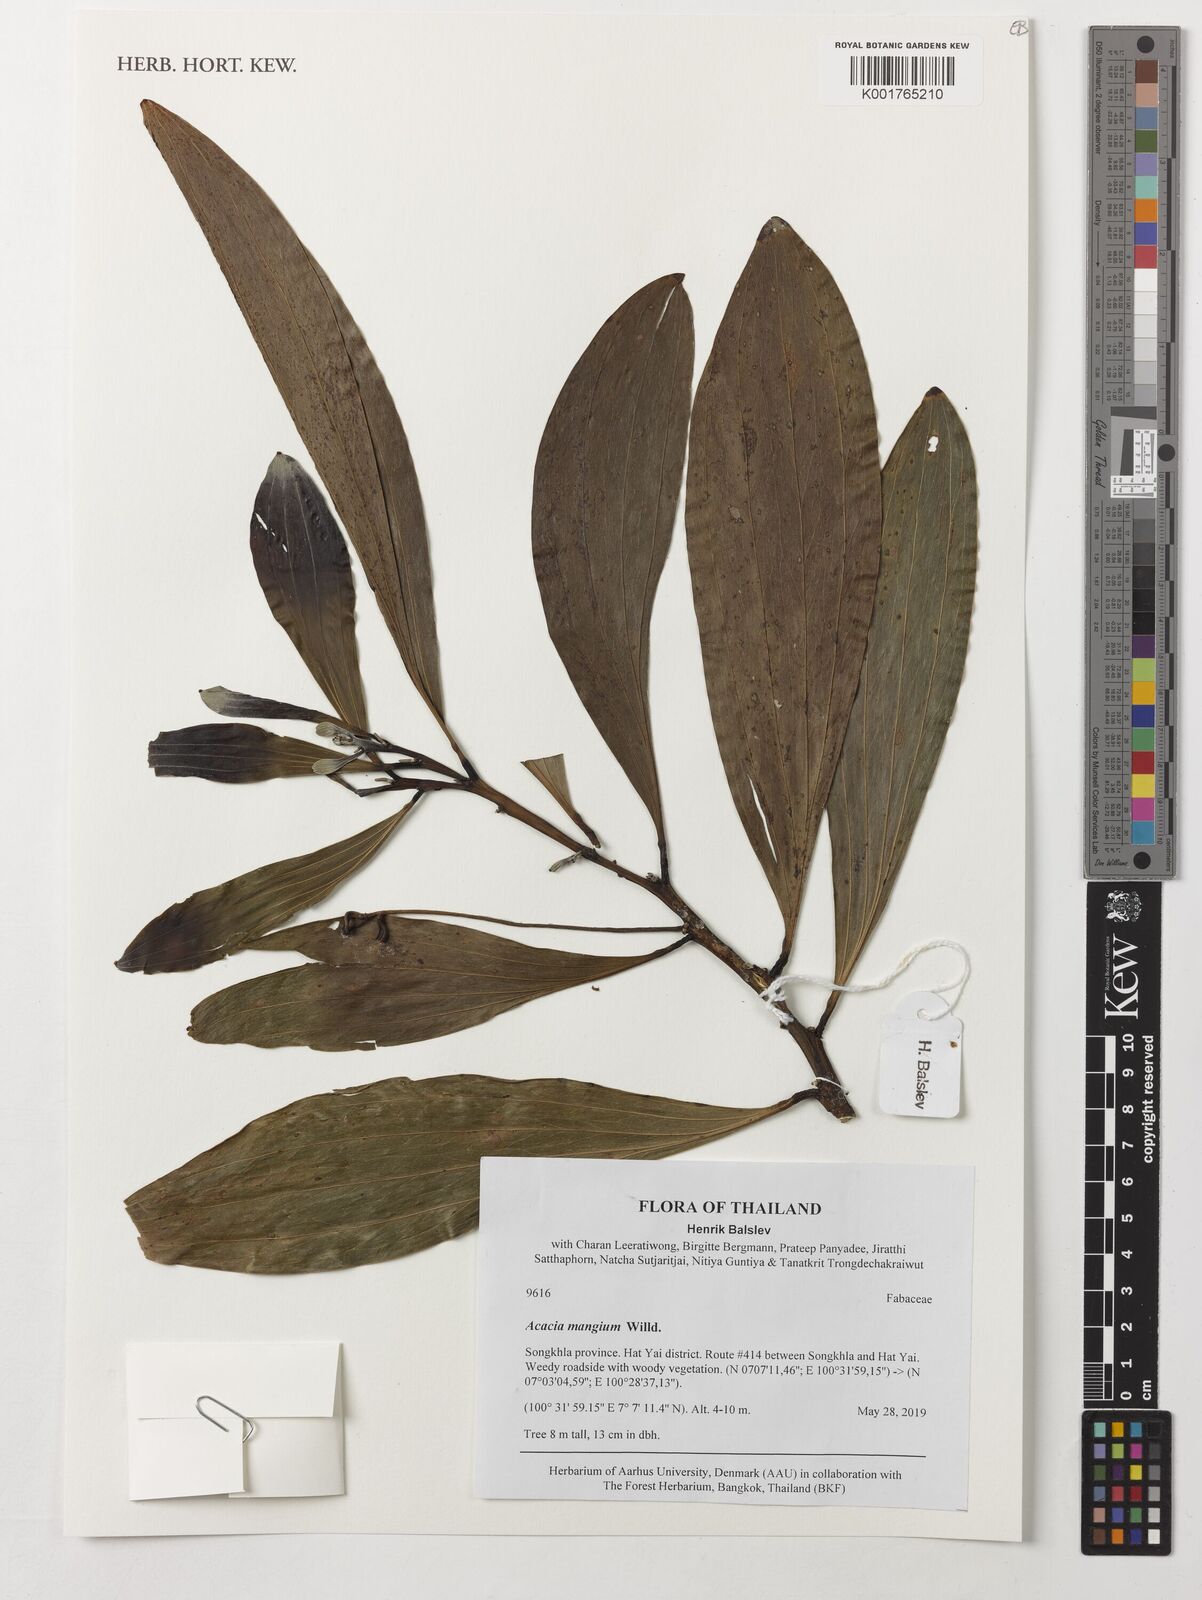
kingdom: Plantae
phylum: Tracheophyta
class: Magnoliopsida
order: Fabales
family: Fabaceae
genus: Acacia
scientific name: Acacia mangium
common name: Black wattle
